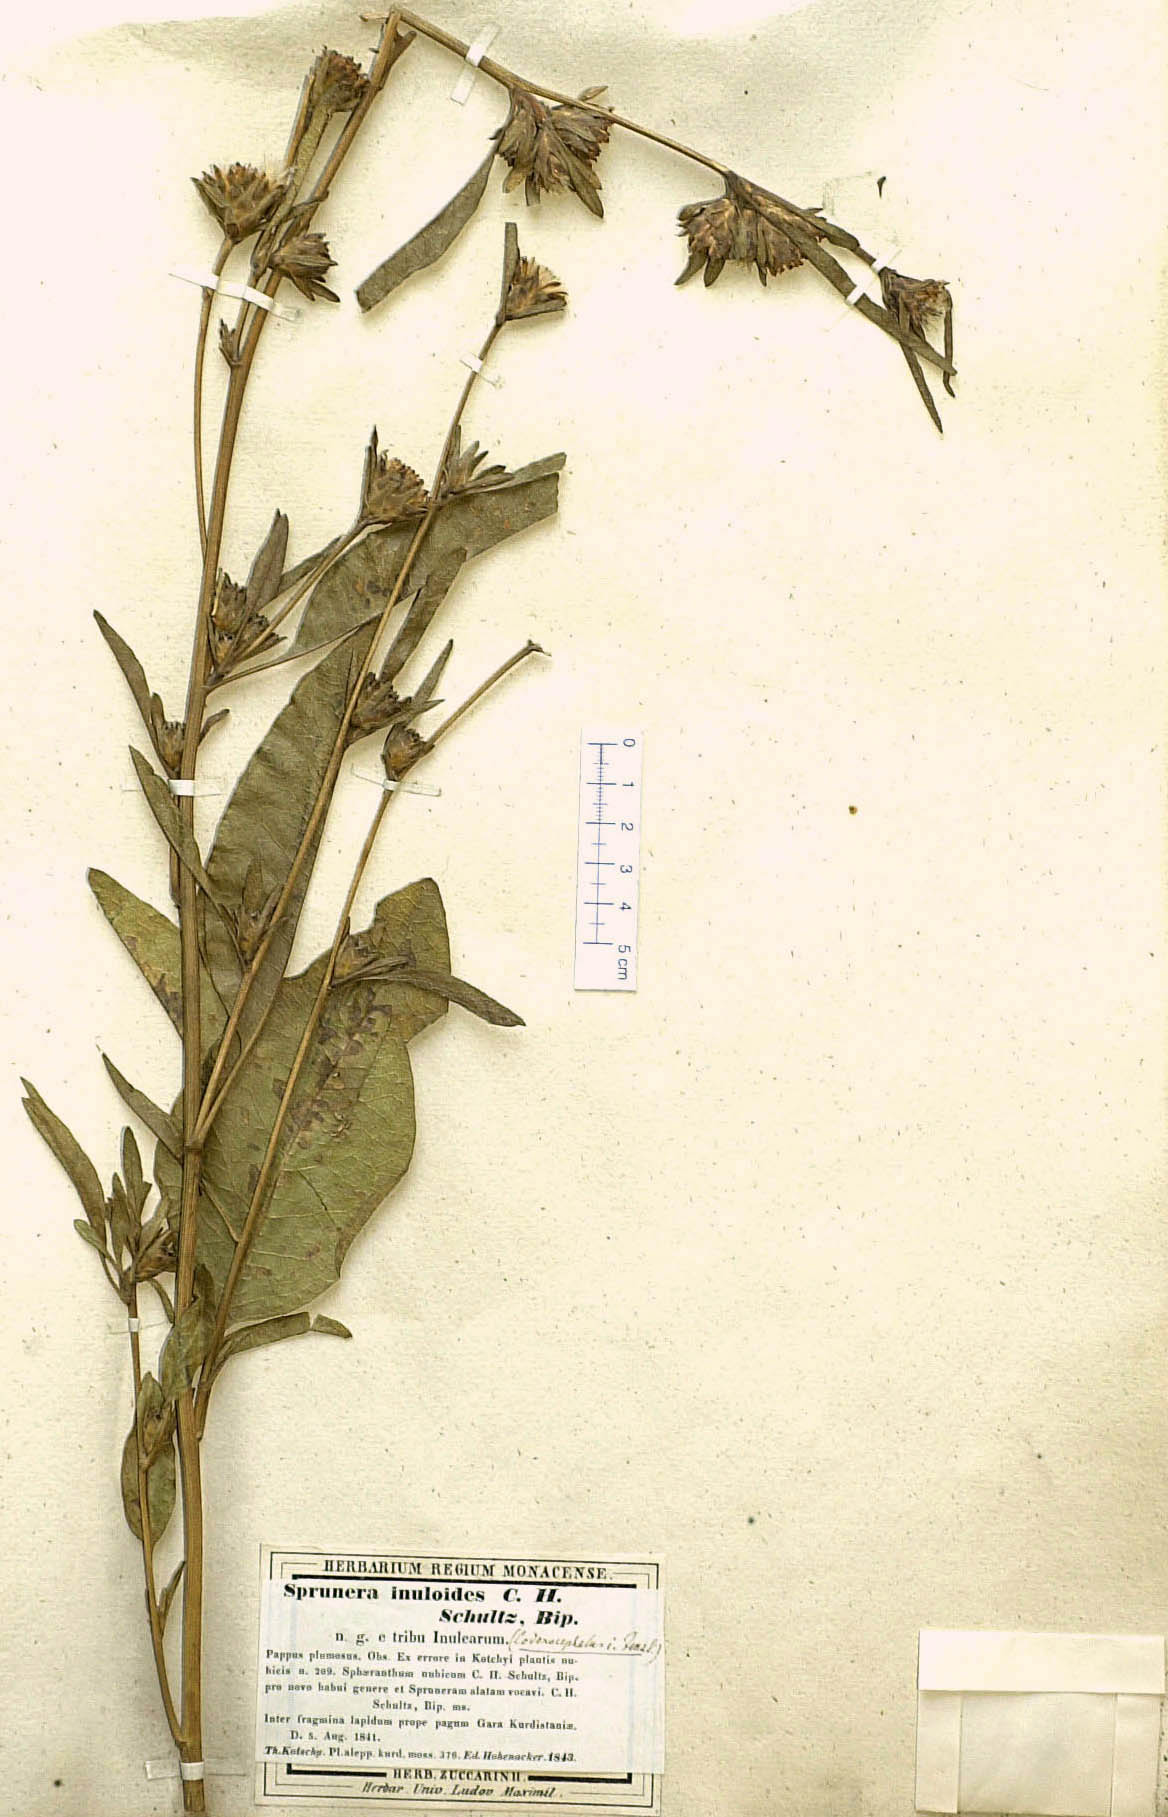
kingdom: Plantae
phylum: Tracheophyta
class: Magnoliopsida
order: Asterales
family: Asteraceae
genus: Inula
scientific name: Inula inuloides
